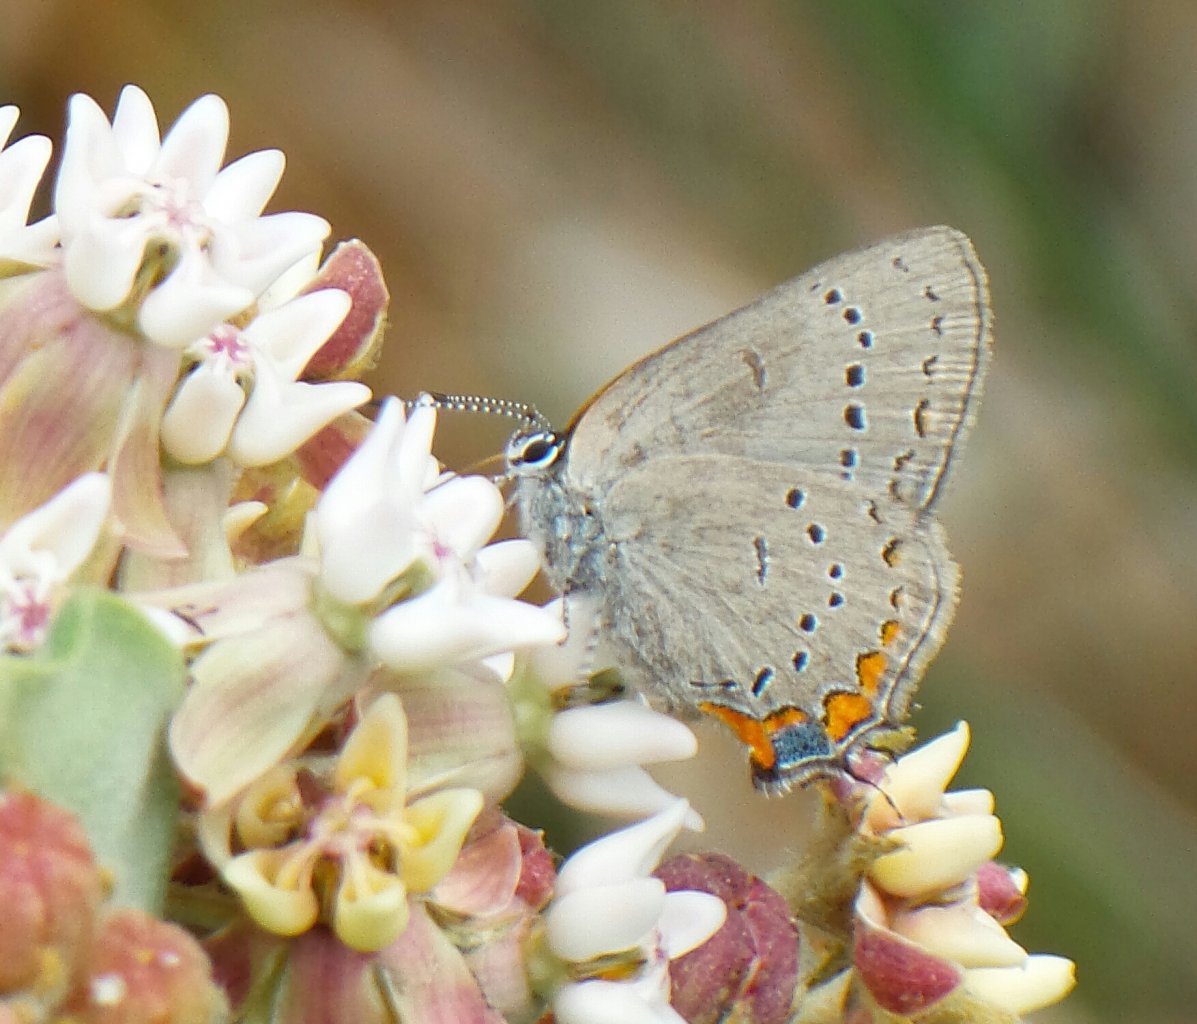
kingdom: Animalia
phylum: Arthropoda
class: Insecta
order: Lepidoptera
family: Lycaenidae
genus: Strymon
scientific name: Strymon acadica
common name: Acadian Hairstreak
